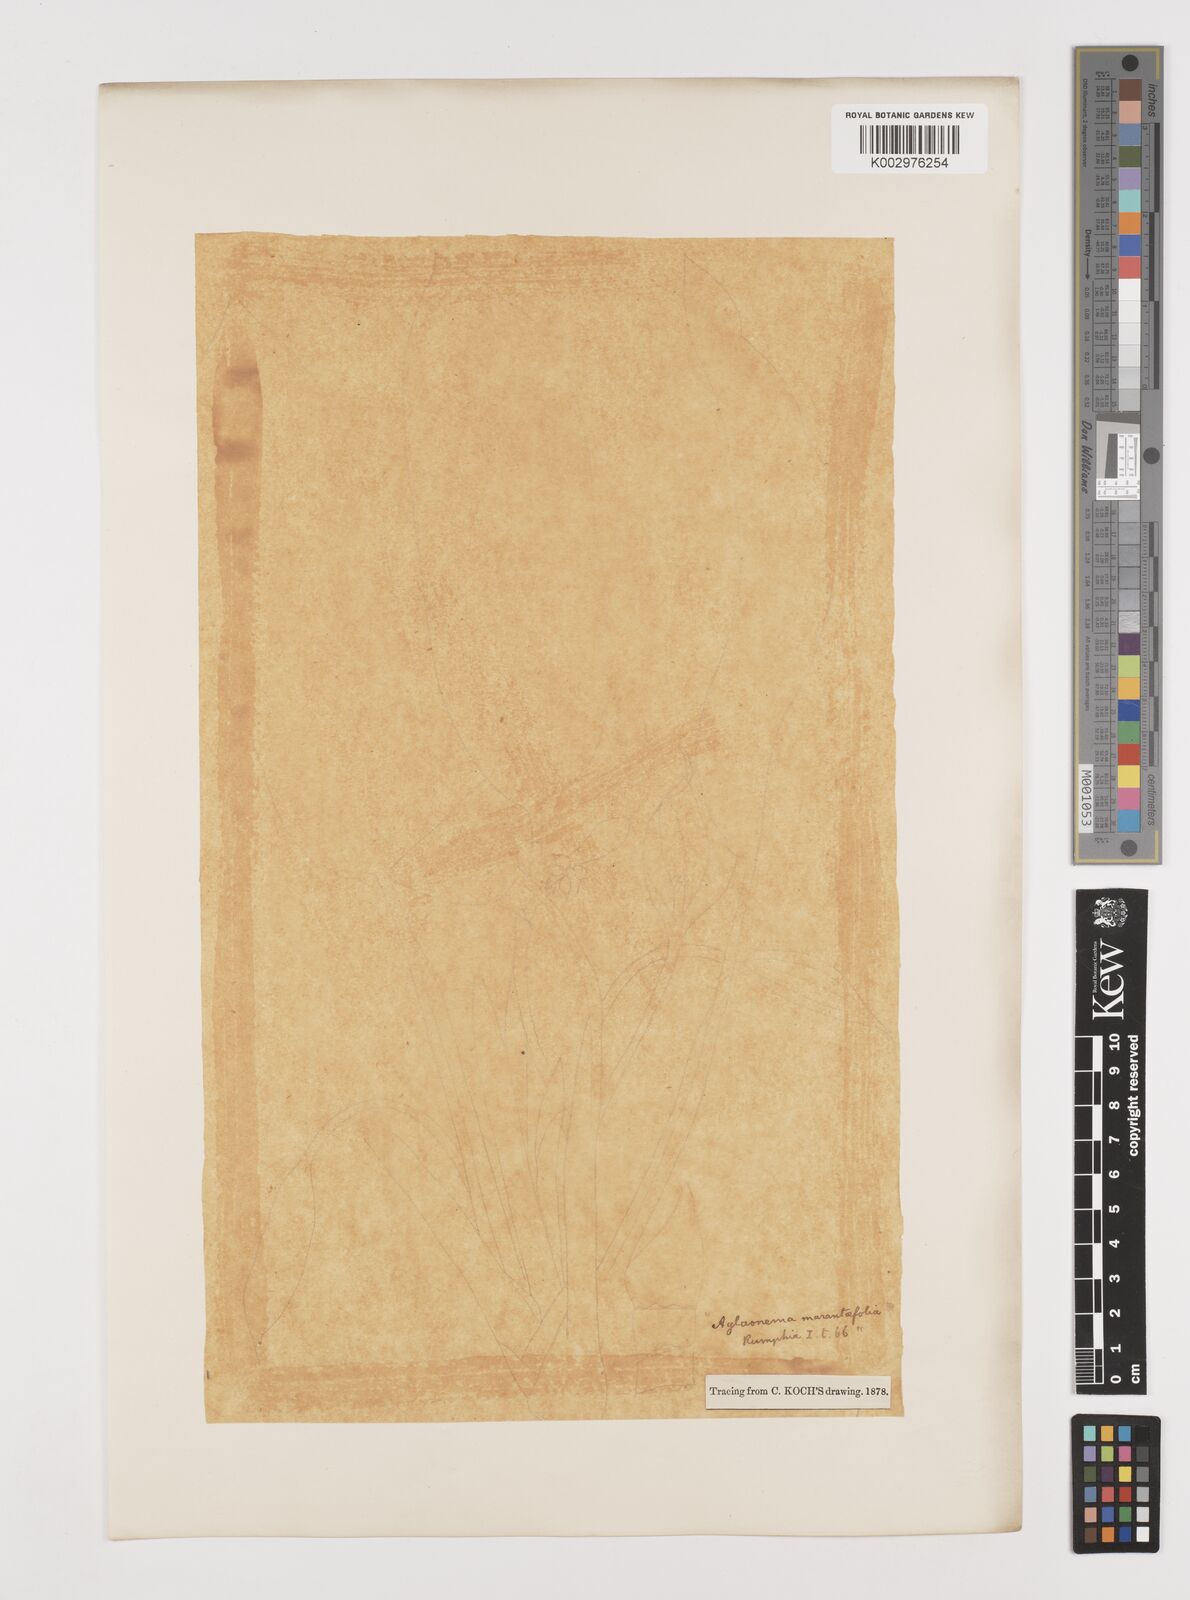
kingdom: Plantae
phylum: Tracheophyta
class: Liliopsida
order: Alismatales
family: Araceae
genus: Aglaonema
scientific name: Aglaonema commutatum
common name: Philippine evergreen
